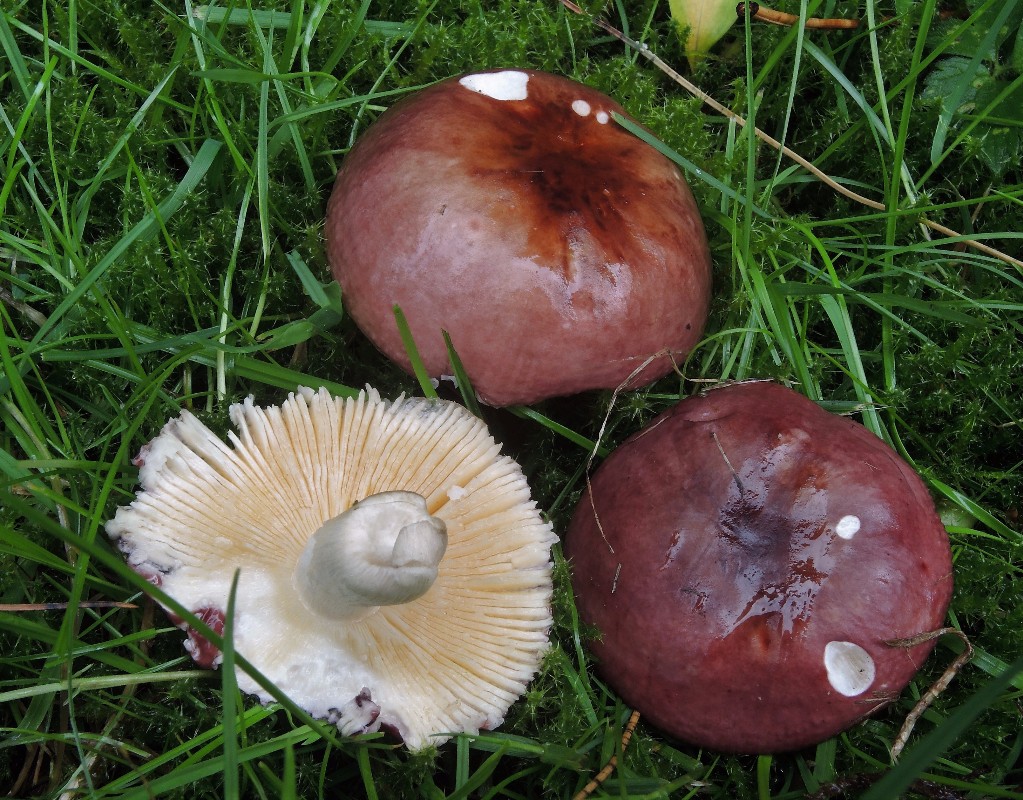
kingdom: Fungi
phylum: Basidiomycota
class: Agaricomycetes
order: Russulales
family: Russulaceae
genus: Russula
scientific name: Russula cessans
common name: fyrre-skørhat
